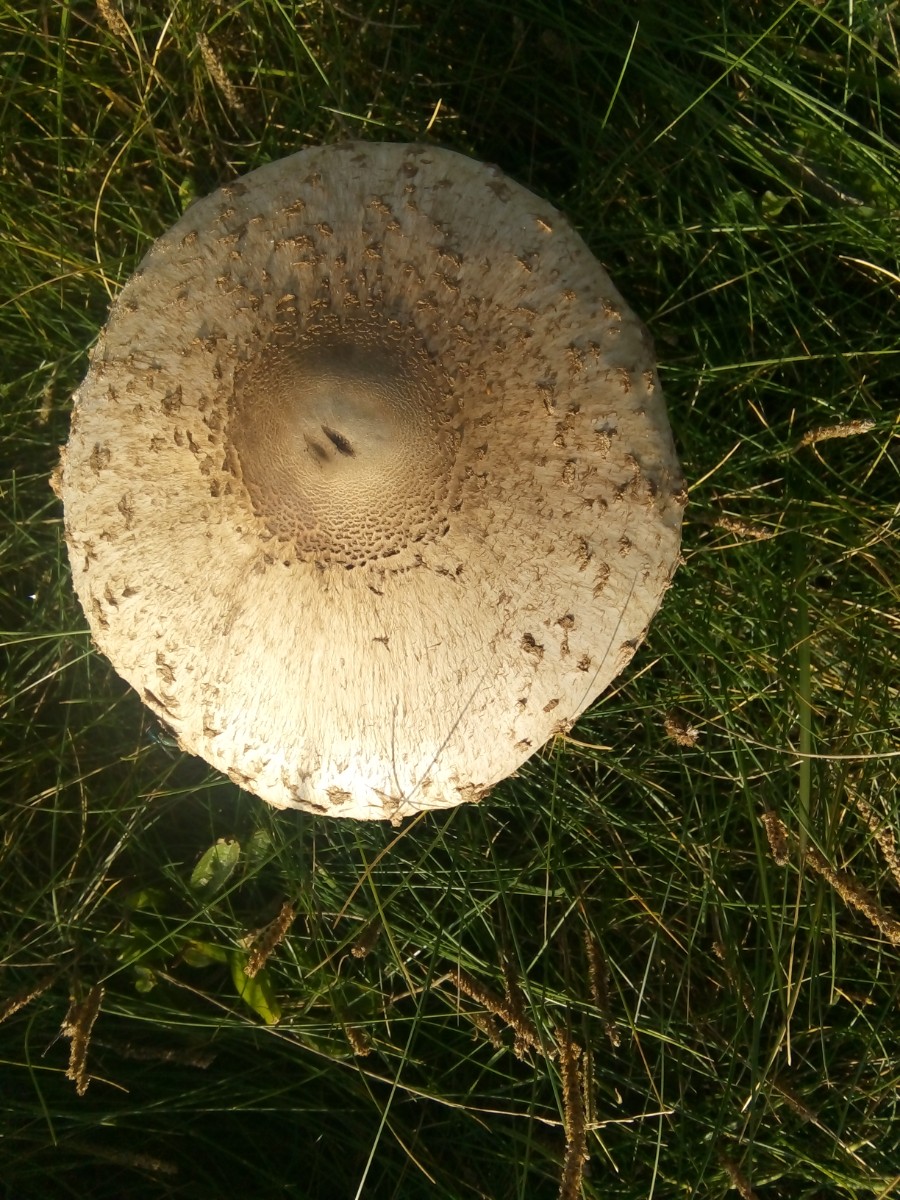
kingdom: Fungi
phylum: Basidiomycota
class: Agaricomycetes
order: Agaricales
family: Agaricaceae
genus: Macrolepiota
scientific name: Macrolepiota
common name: kæmpeparasolhat
